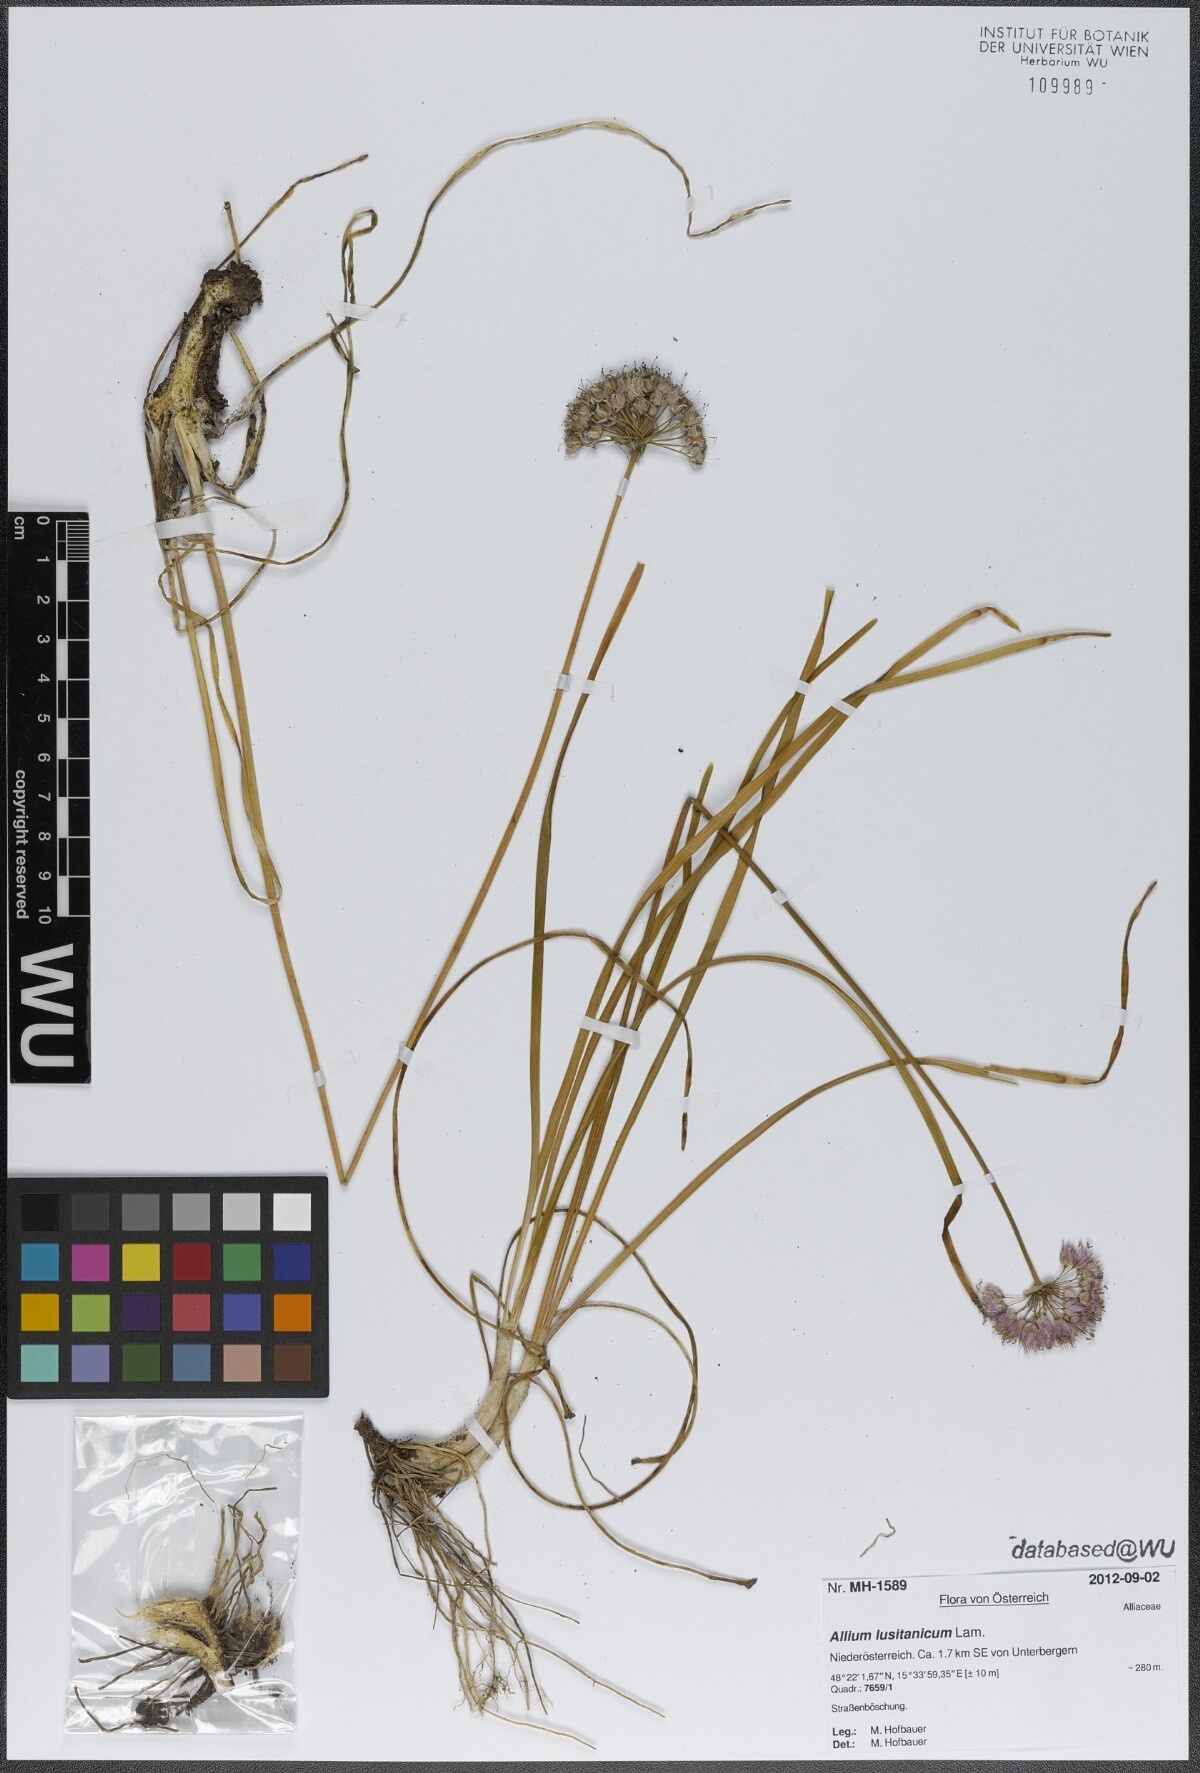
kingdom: Plantae
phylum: Tracheophyta
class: Liliopsida
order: Asparagales
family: Amaryllidaceae
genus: Allium
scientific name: Allium lusitanicum
